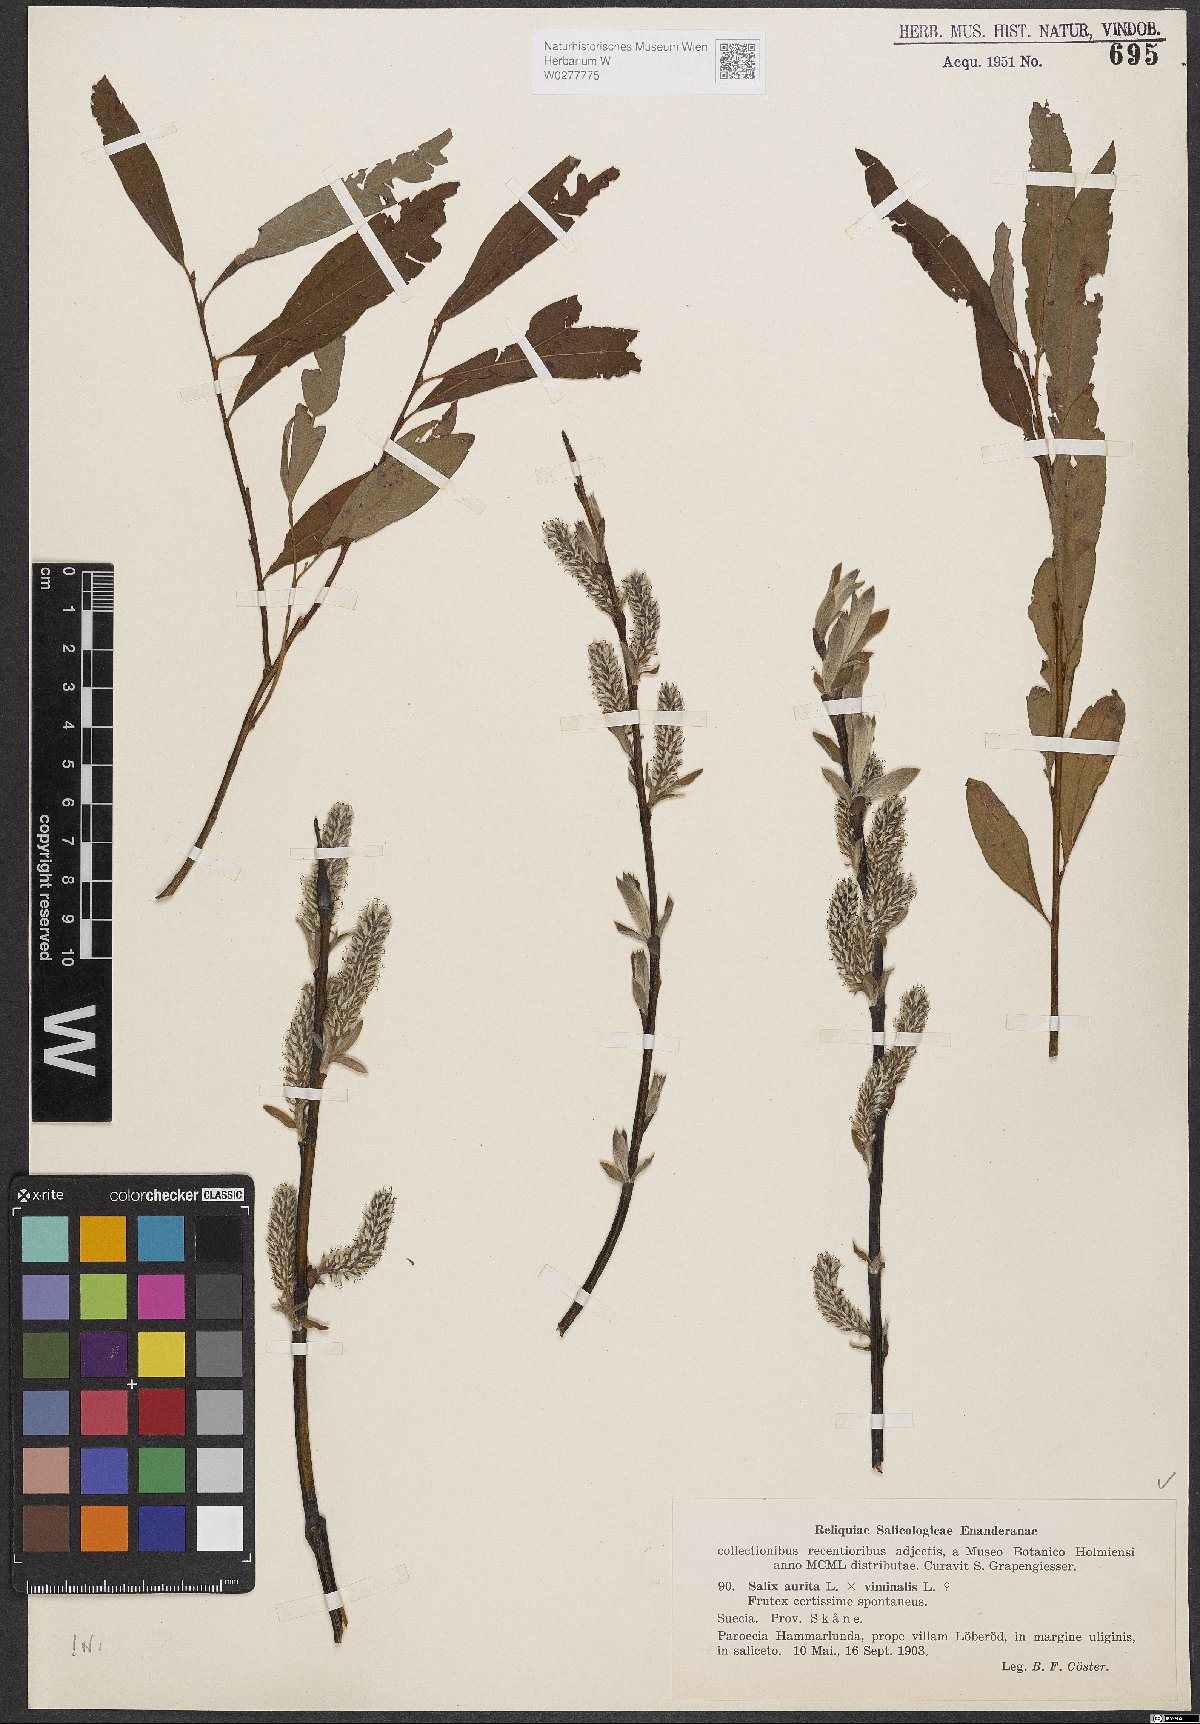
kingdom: Plantae
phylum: Tracheophyta
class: Magnoliopsida
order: Malpighiales
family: Salicaceae
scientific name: Salicaceae
